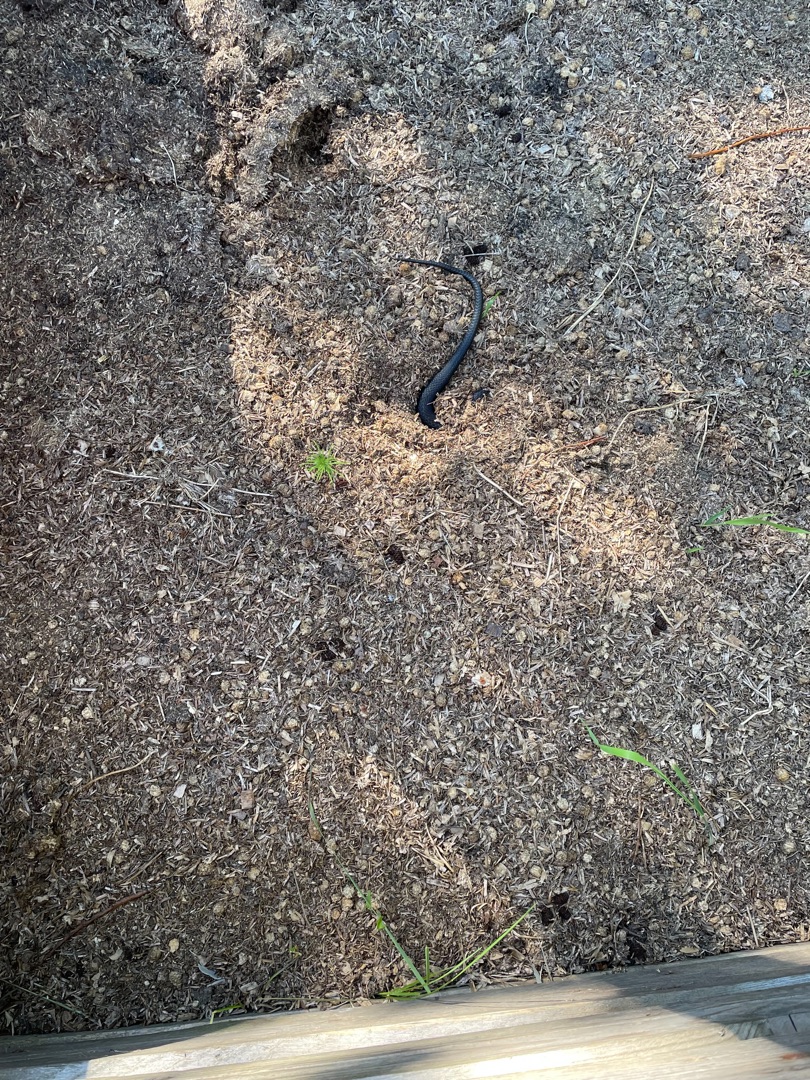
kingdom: Animalia
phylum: Chordata
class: Squamata
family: Colubridae
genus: Natrix
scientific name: Natrix natrix
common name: Snog
